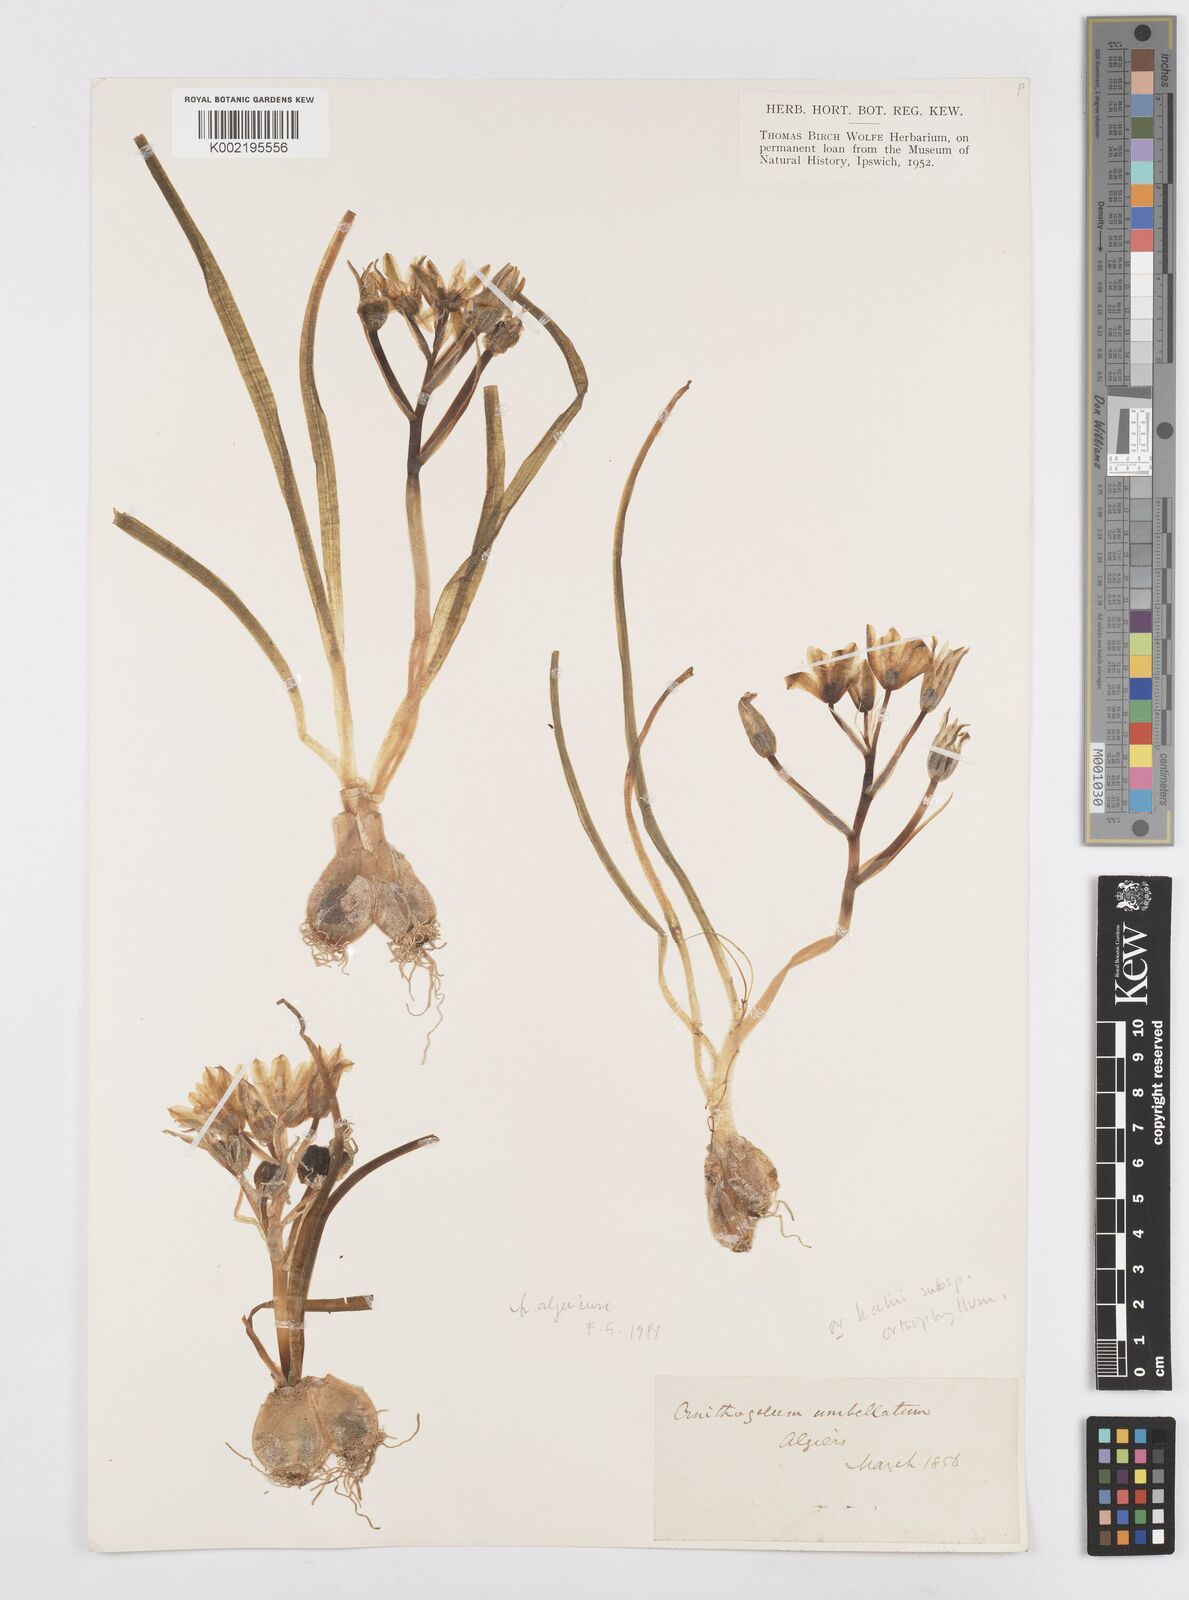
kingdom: Plantae
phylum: Tracheophyta
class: Liliopsida
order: Asparagales
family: Asparagaceae
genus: Ornithogalum
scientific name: Ornithogalum umbellatum
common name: Garden star-of-bethlehem
